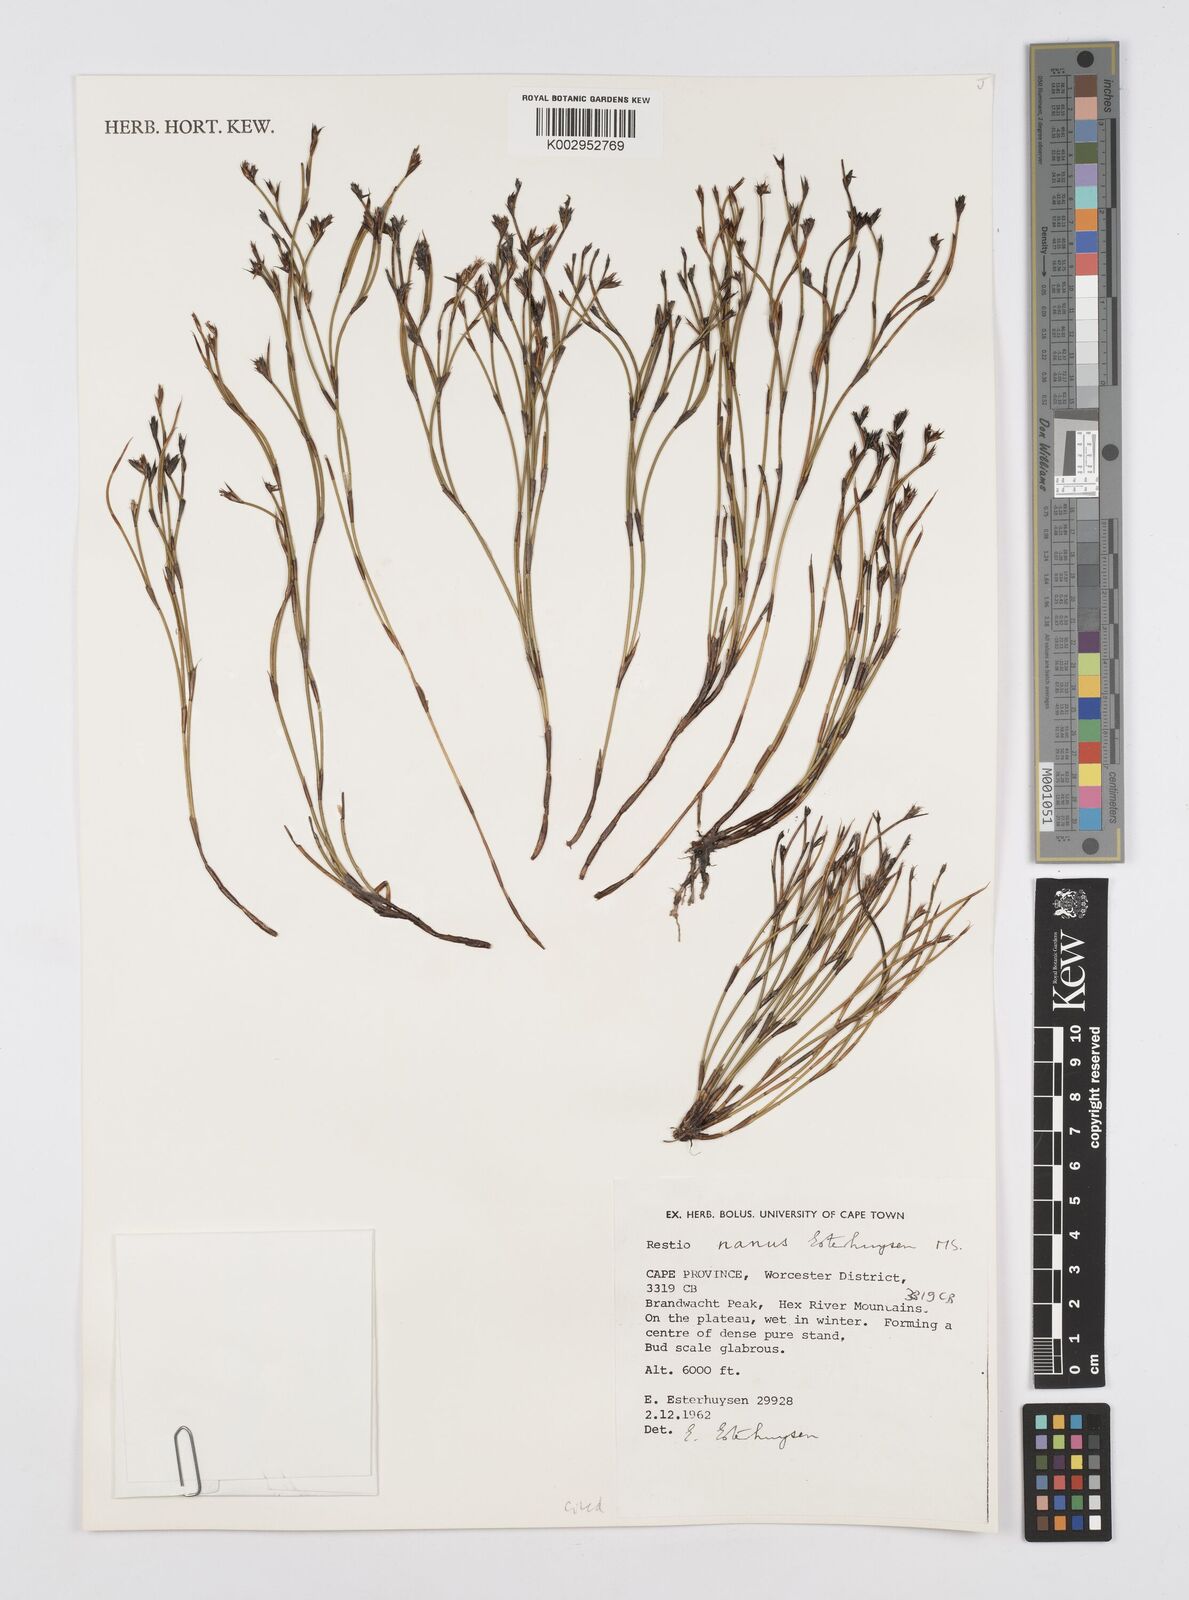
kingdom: Plantae
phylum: Tracheophyta
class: Liliopsida
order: Poales
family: Restionaceae
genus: Restio
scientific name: Restio nanus
